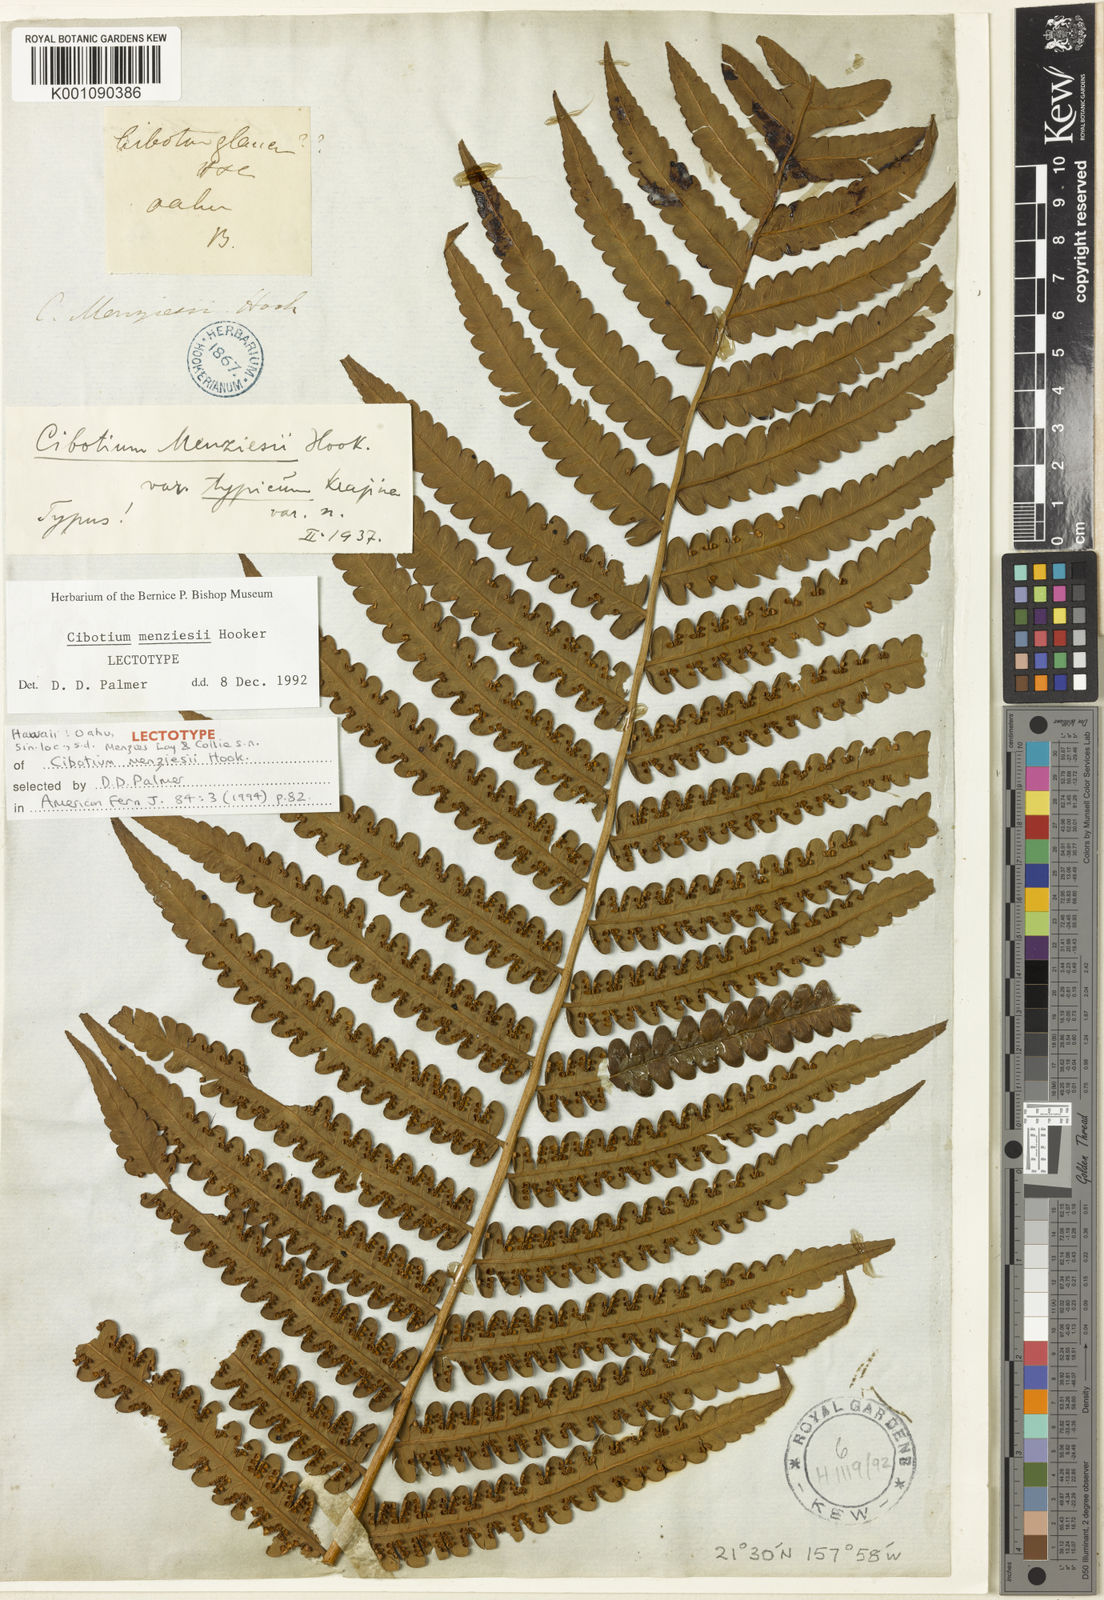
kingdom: Plantae
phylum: Tracheophyta
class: Polypodiopsida
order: Cyatheales
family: Cibotiaceae
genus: Cibotium
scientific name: Cibotium menziesii
